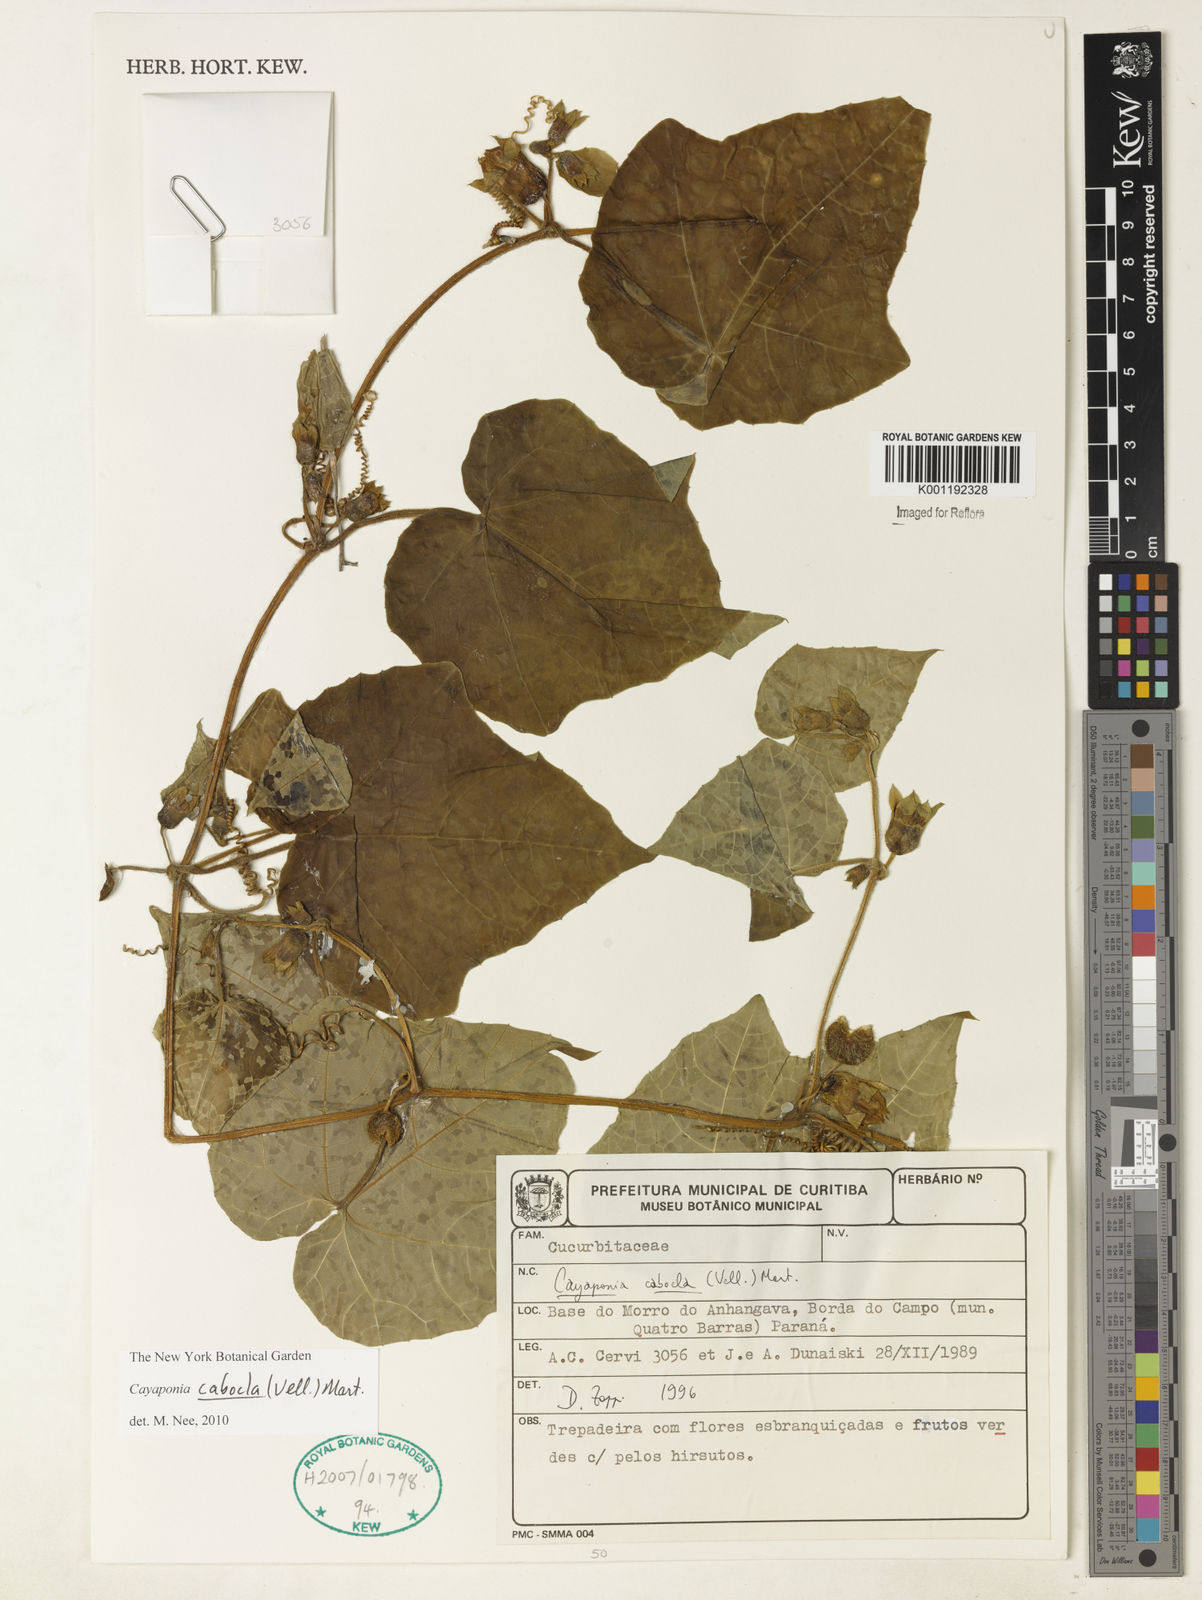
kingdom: Plantae
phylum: Tracheophyta
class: Magnoliopsida
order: Cucurbitales
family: Cucurbitaceae
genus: Cayaponia
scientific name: Cayaponia cabocla
